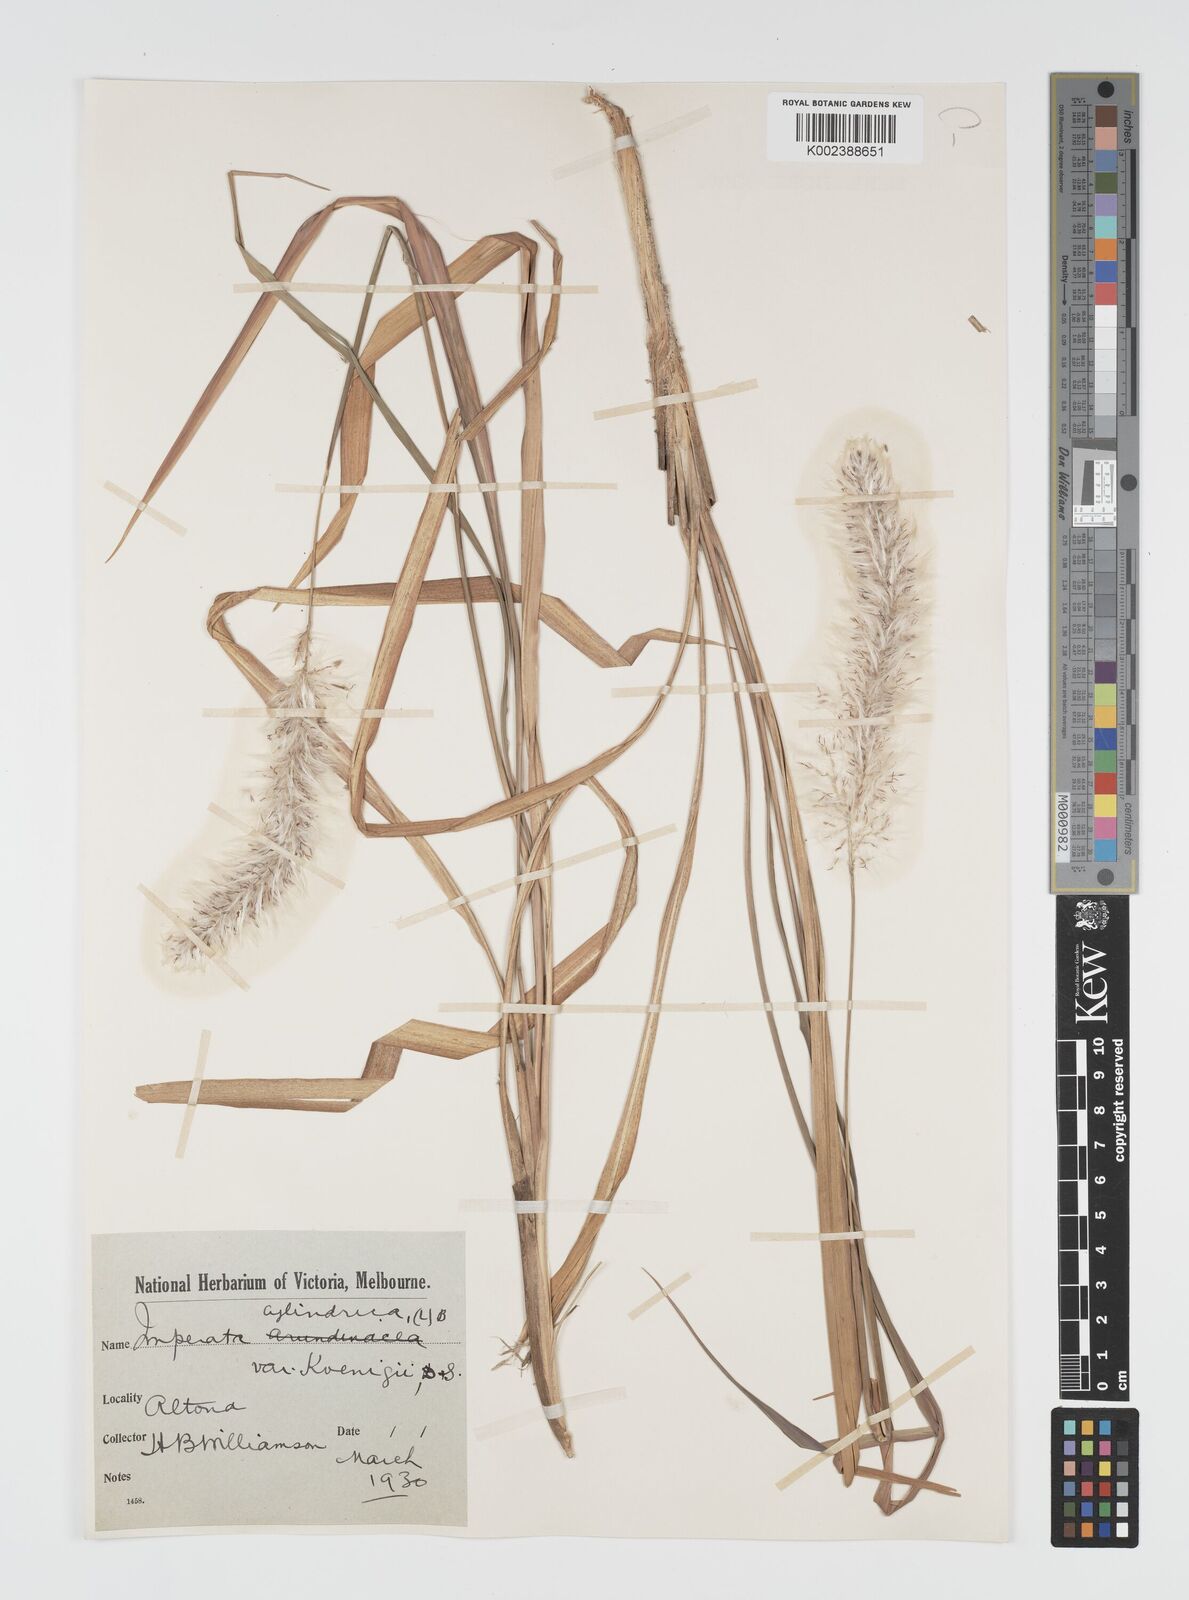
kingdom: Plantae
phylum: Tracheophyta
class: Liliopsida
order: Poales
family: Poaceae
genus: Imperata
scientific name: Imperata cylindrica
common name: Cogongrass
